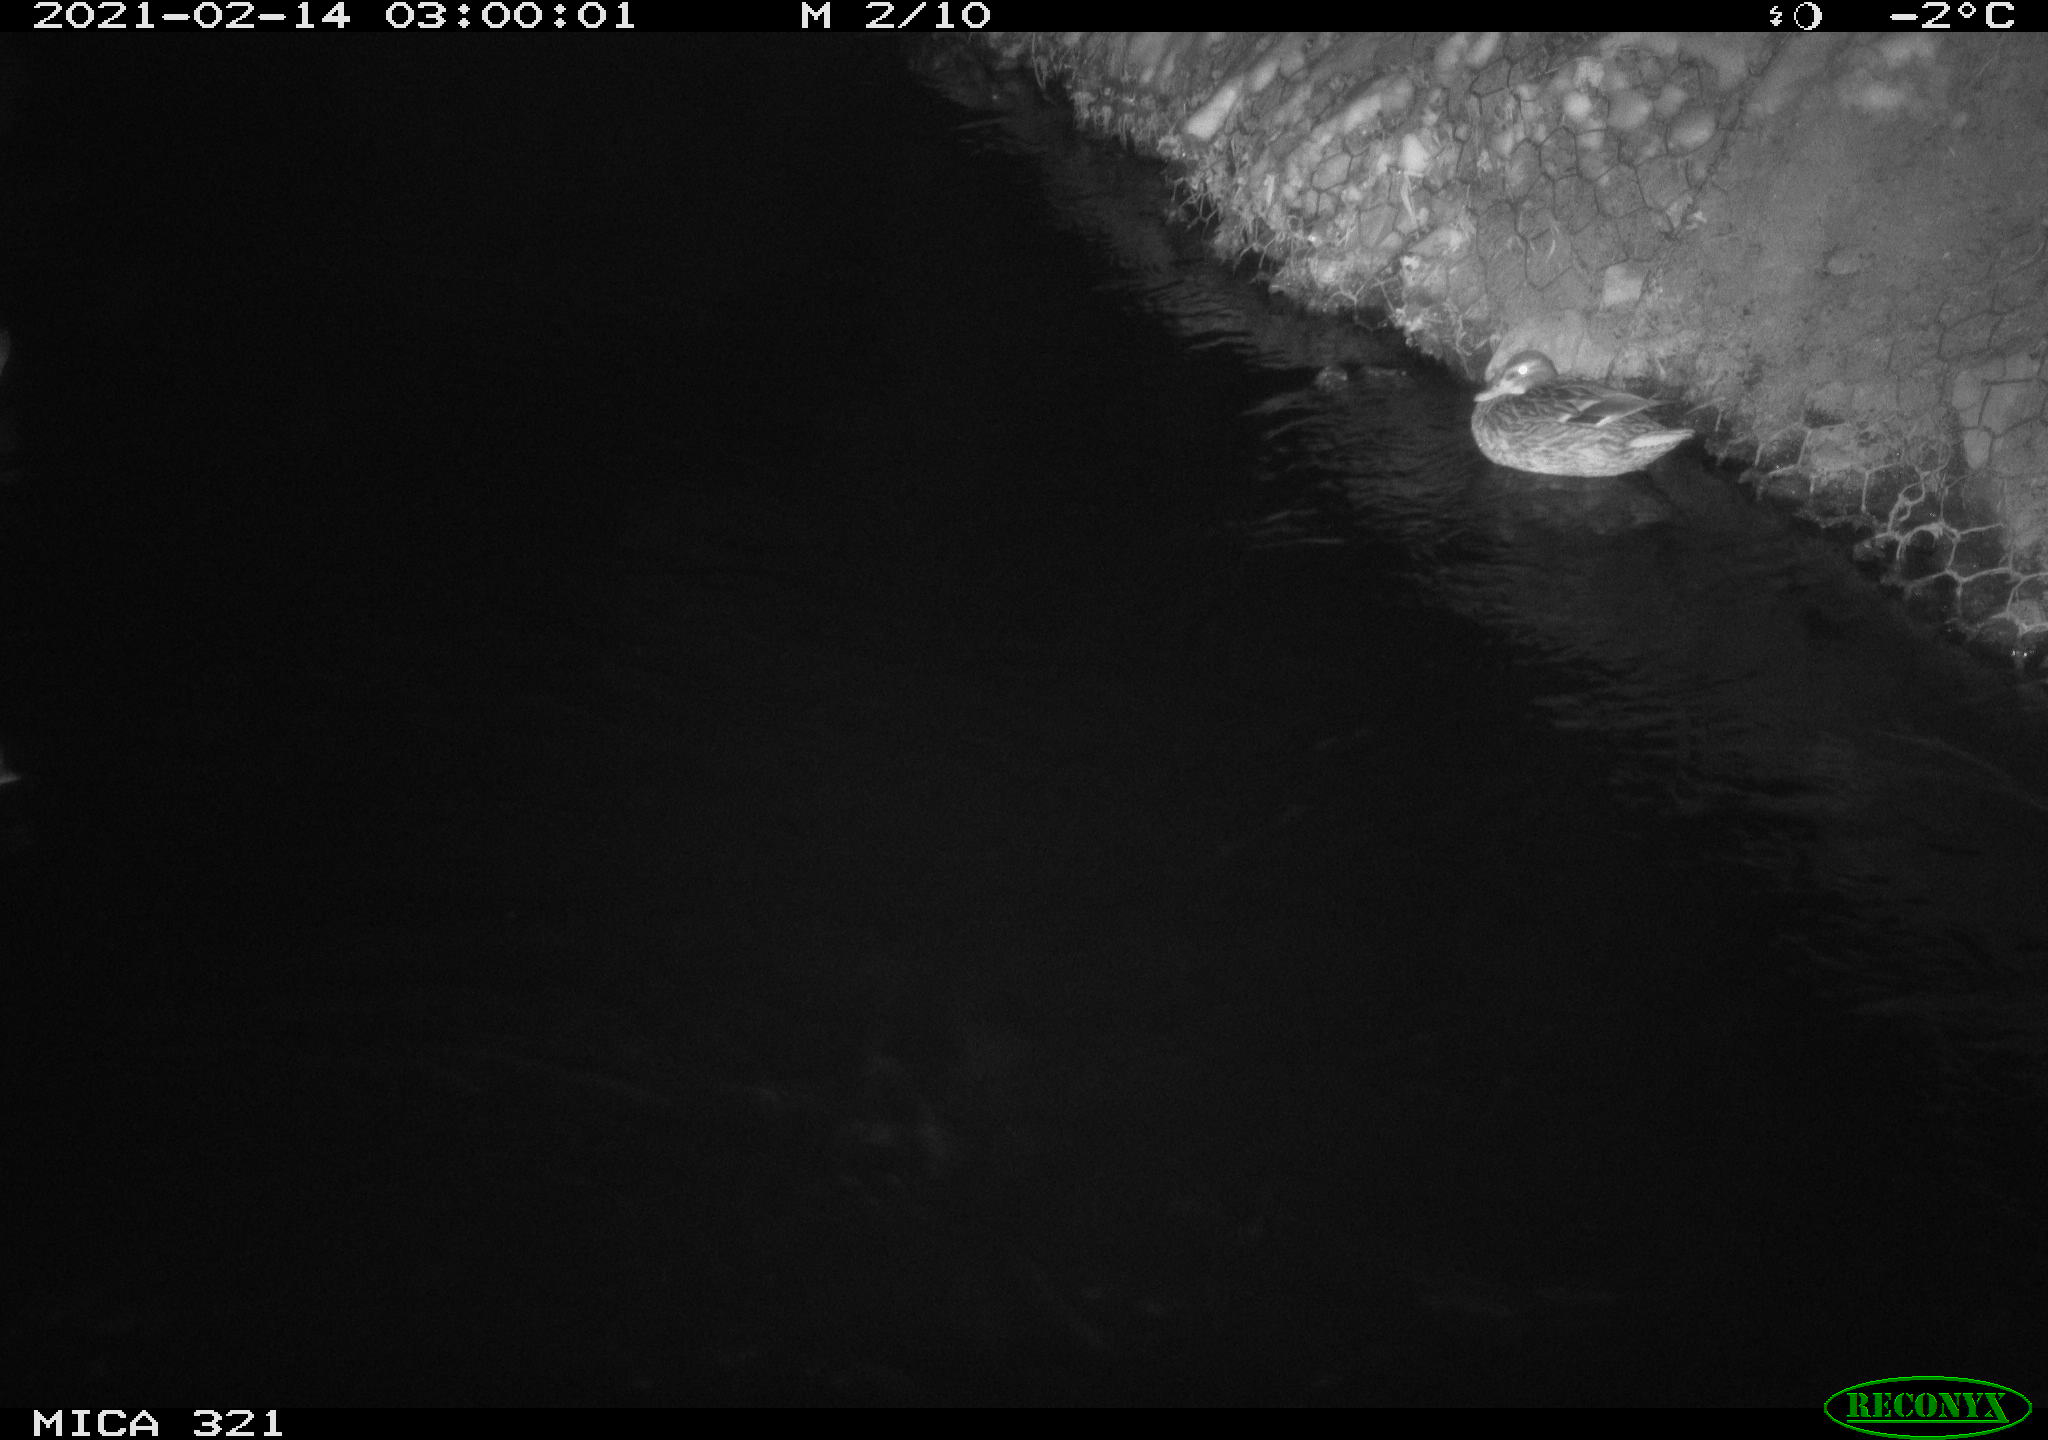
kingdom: Animalia
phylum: Chordata
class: Aves
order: Anseriformes
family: Anatidae
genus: Anas
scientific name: Anas platyrhynchos
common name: Mallard
